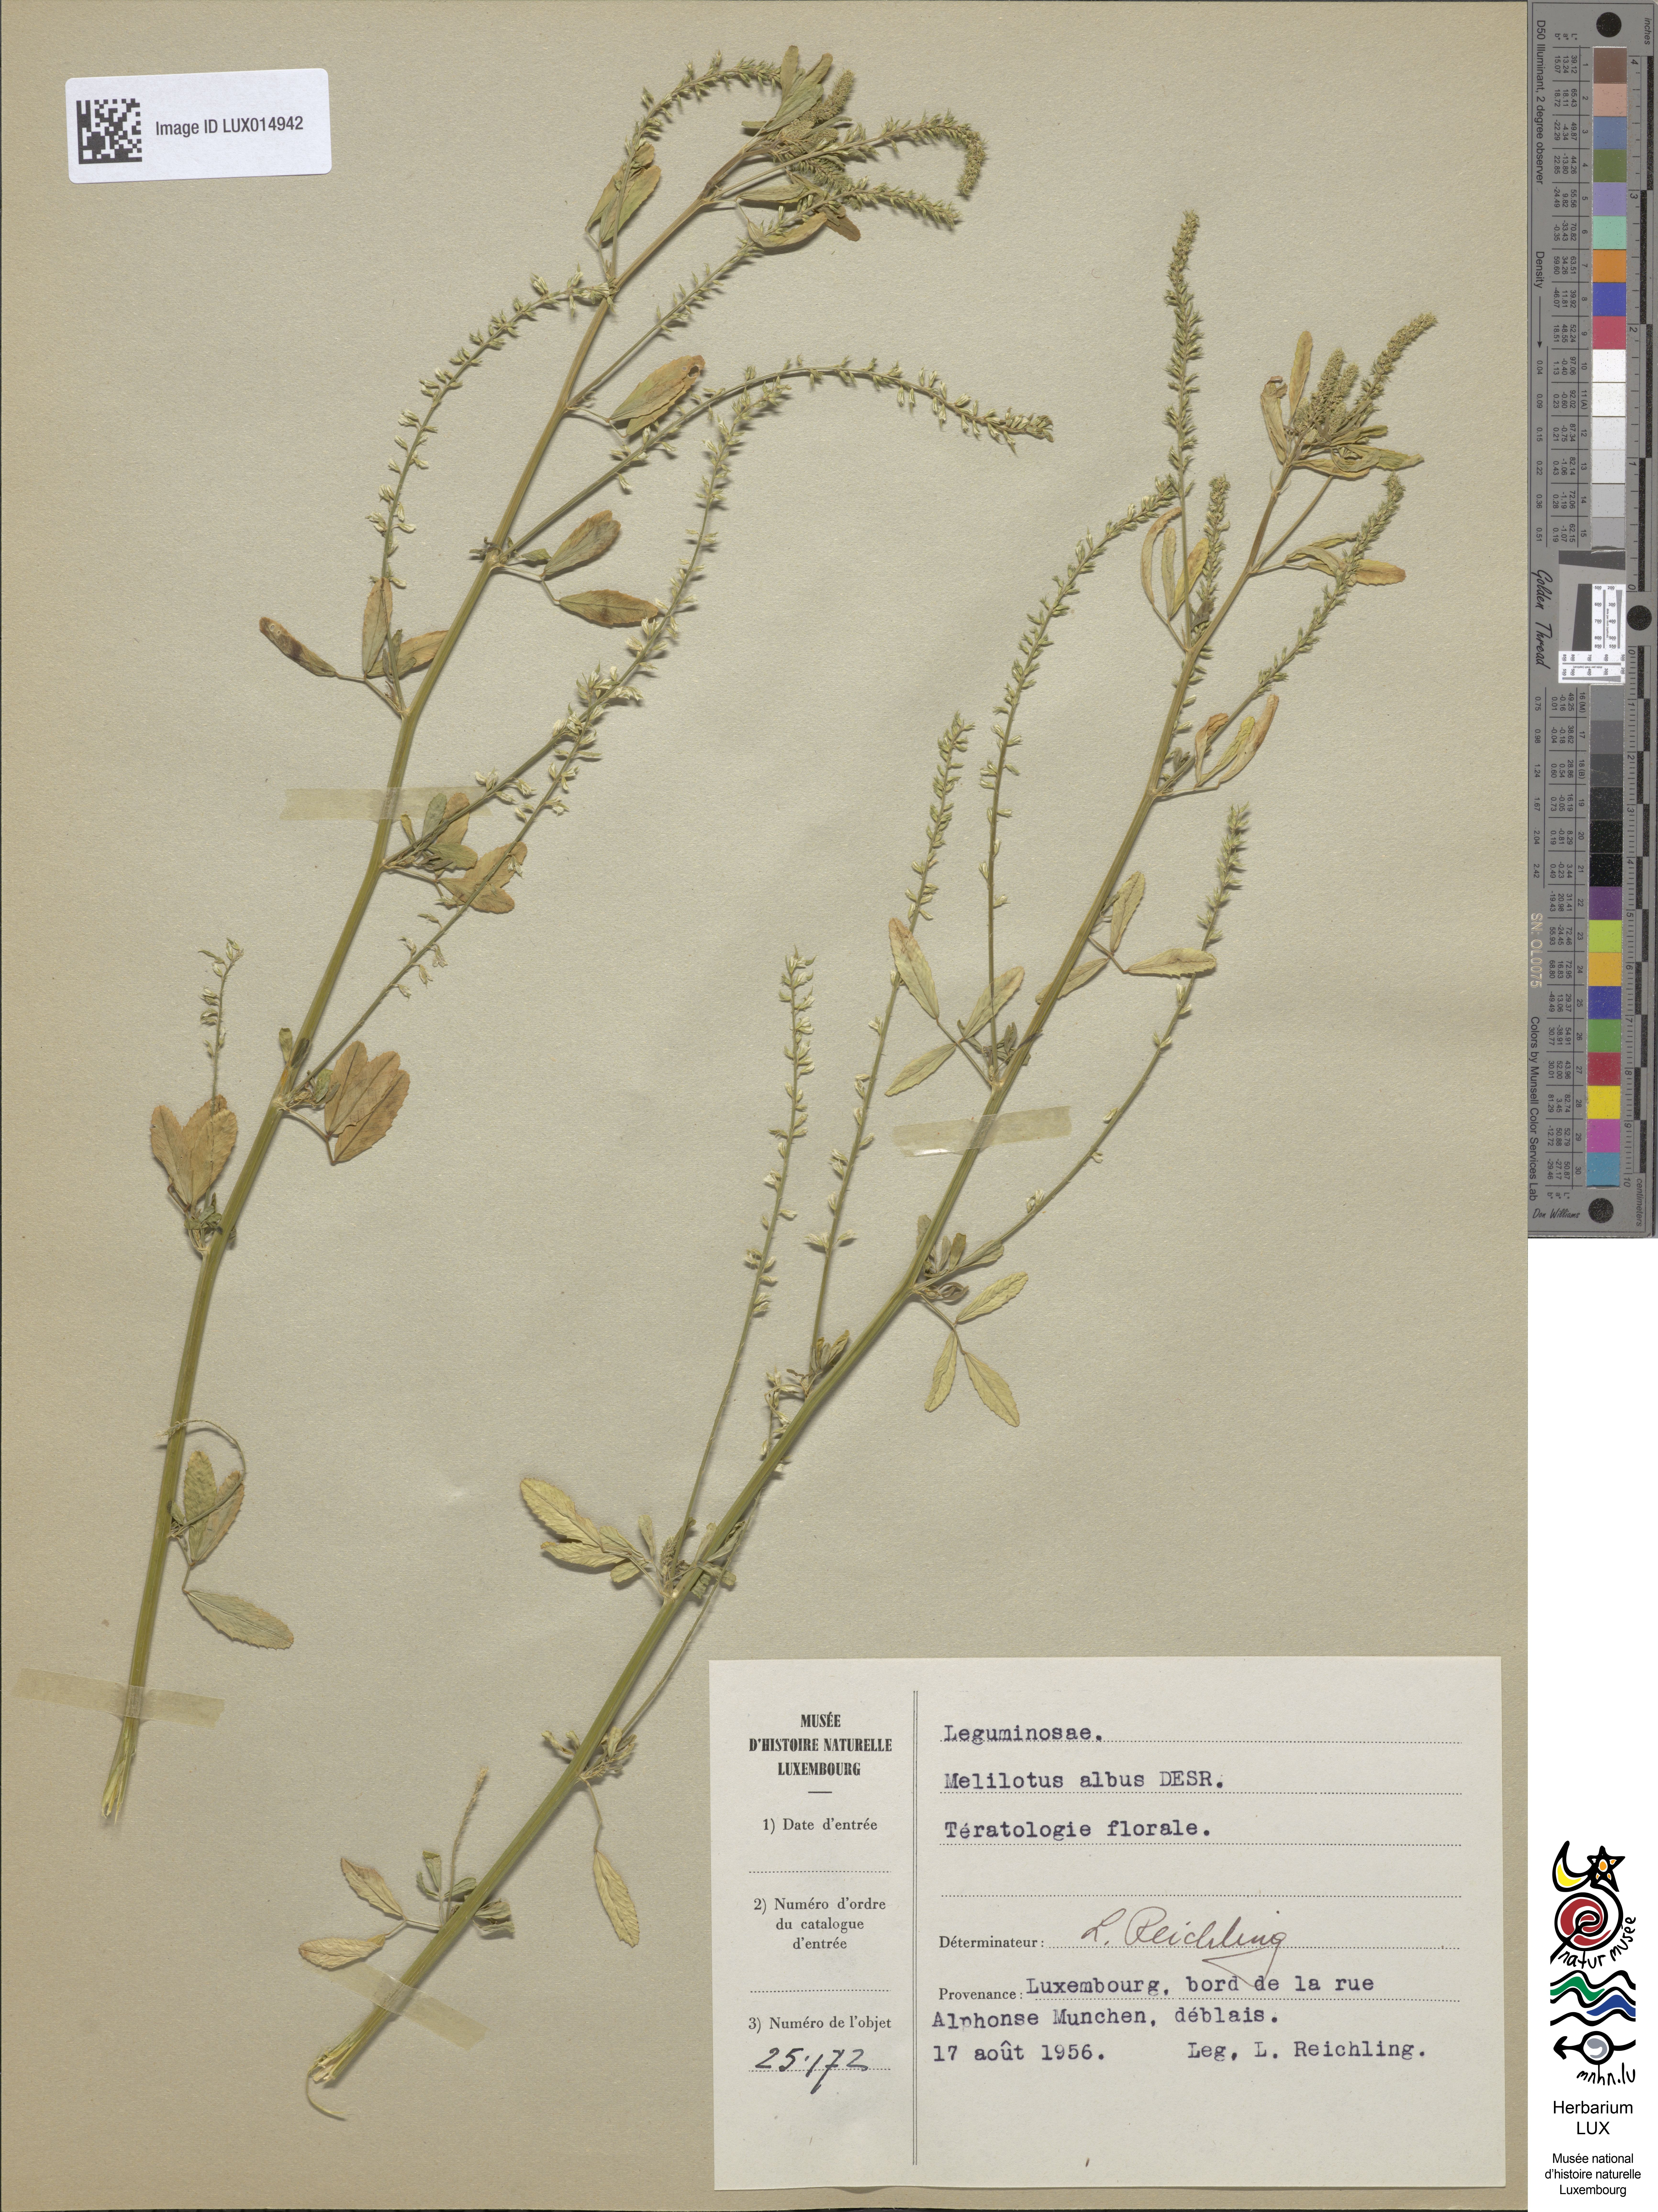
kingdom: Plantae
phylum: Tracheophyta
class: Magnoliopsida
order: Fabales
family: Fabaceae
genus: Melilotus
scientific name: Melilotus albus
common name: White melilot
